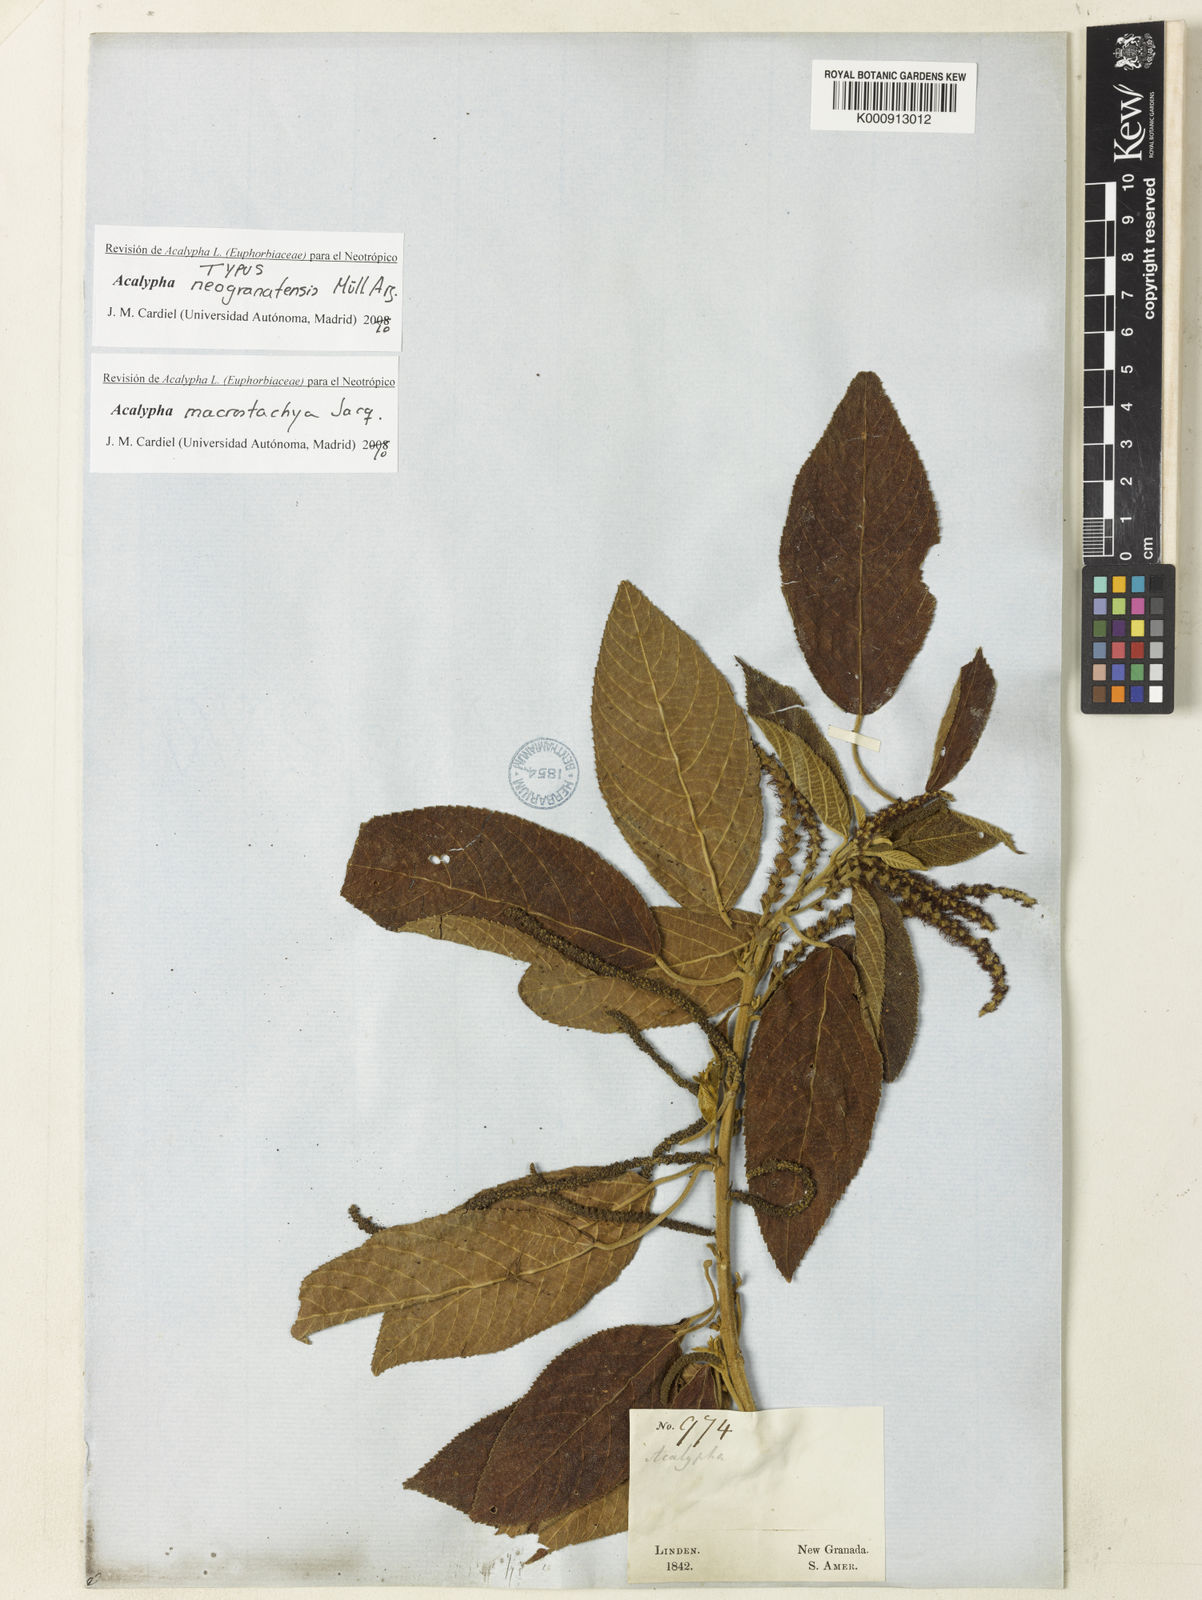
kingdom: Plantae
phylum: Tracheophyta
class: Magnoliopsida
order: Malpighiales
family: Euphorbiaceae
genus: Acalypha
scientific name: Acalypha macrostachya
